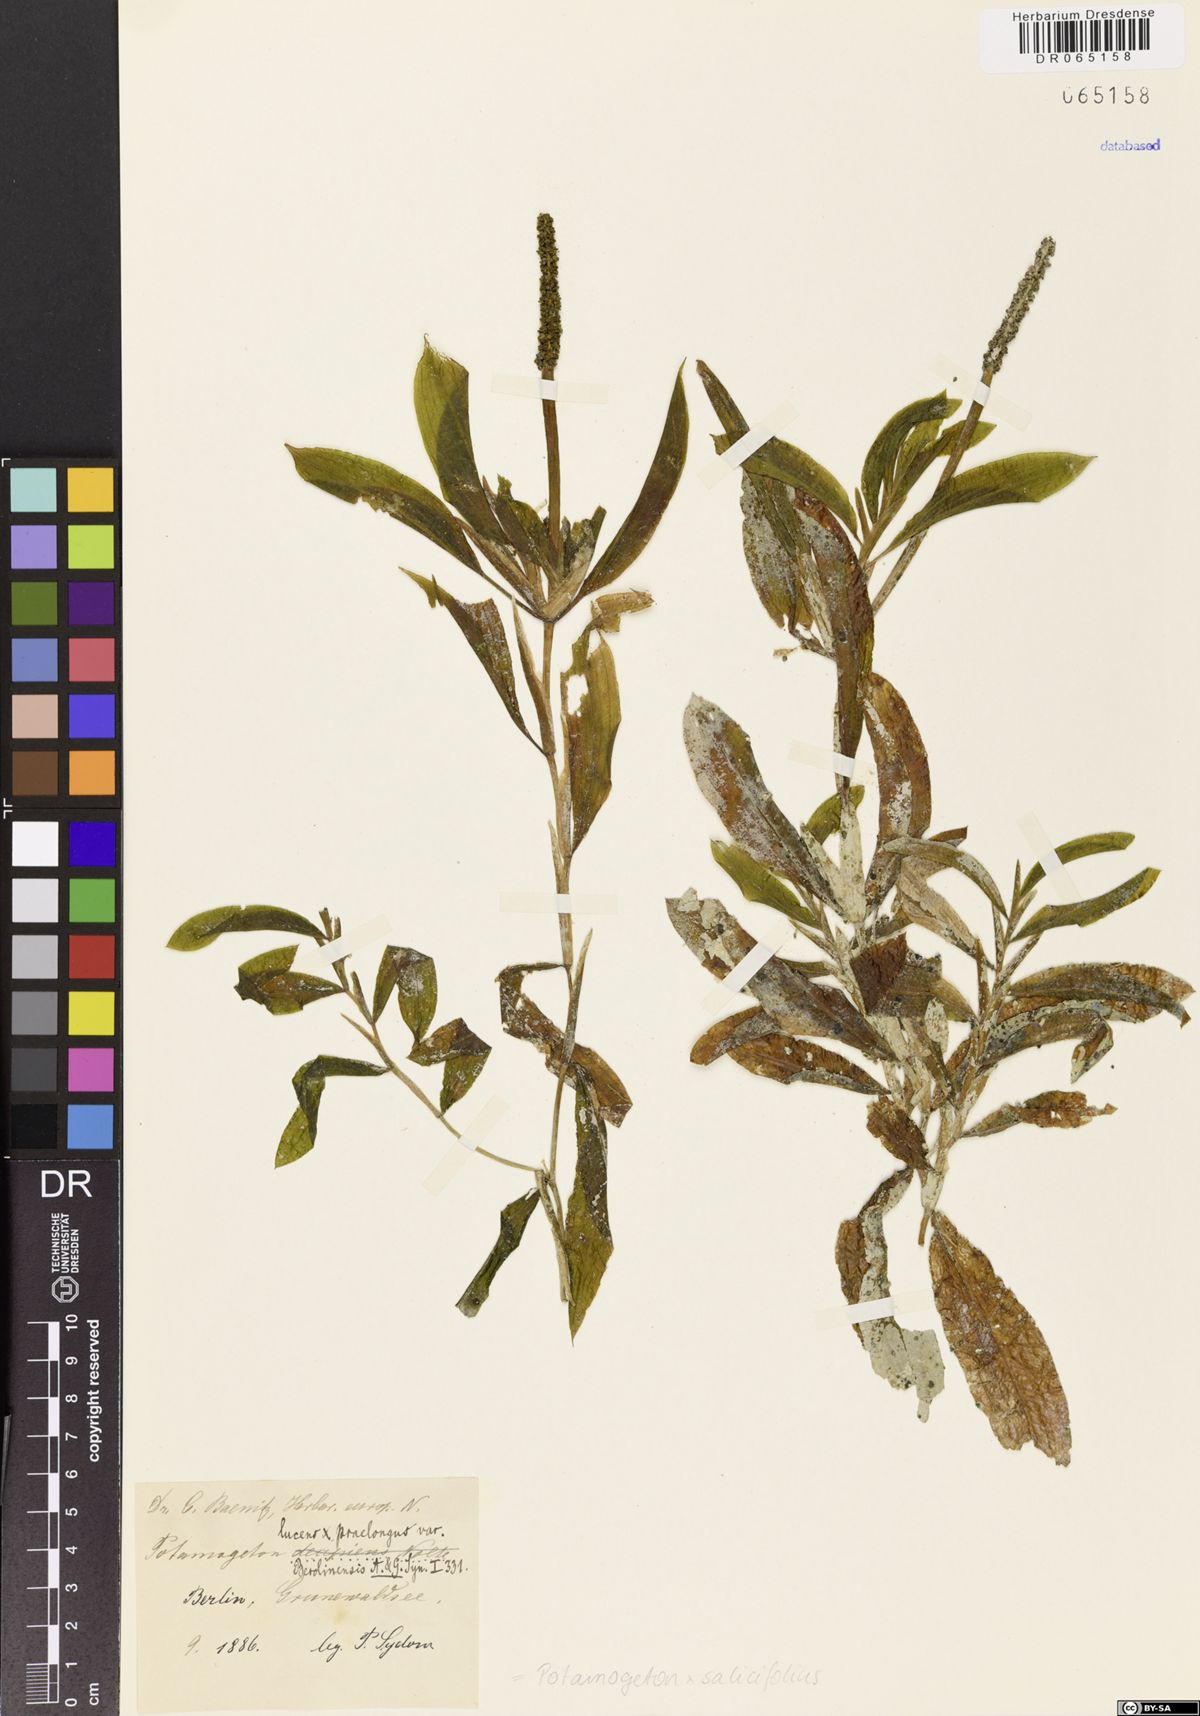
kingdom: Plantae
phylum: Tracheophyta
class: Liliopsida
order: Alismatales
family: Potamogetonaceae
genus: Potamogeton
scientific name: Potamogeton salicifolius
